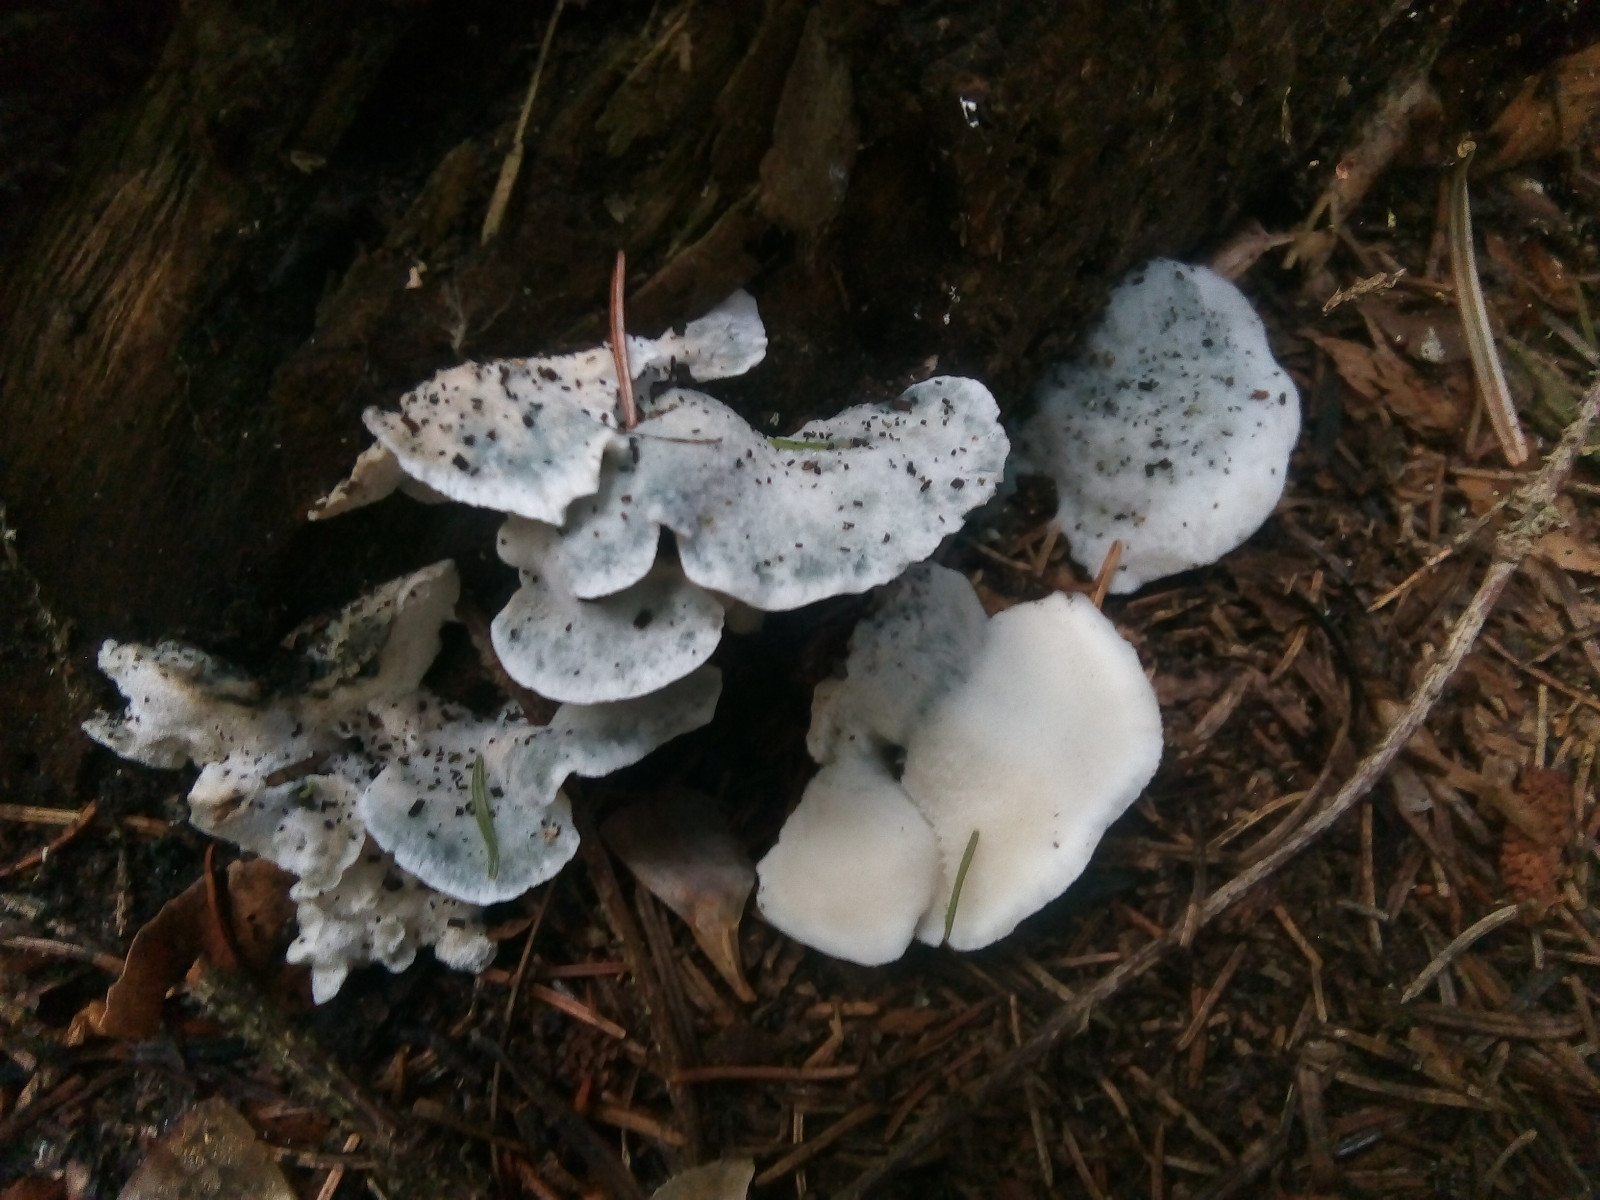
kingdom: Fungi
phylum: Basidiomycota
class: Agaricomycetes
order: Polyporales
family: Polyporaceae
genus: Cyanosporus
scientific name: Cyanosporus caesius
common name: blålig kødporesvamp
